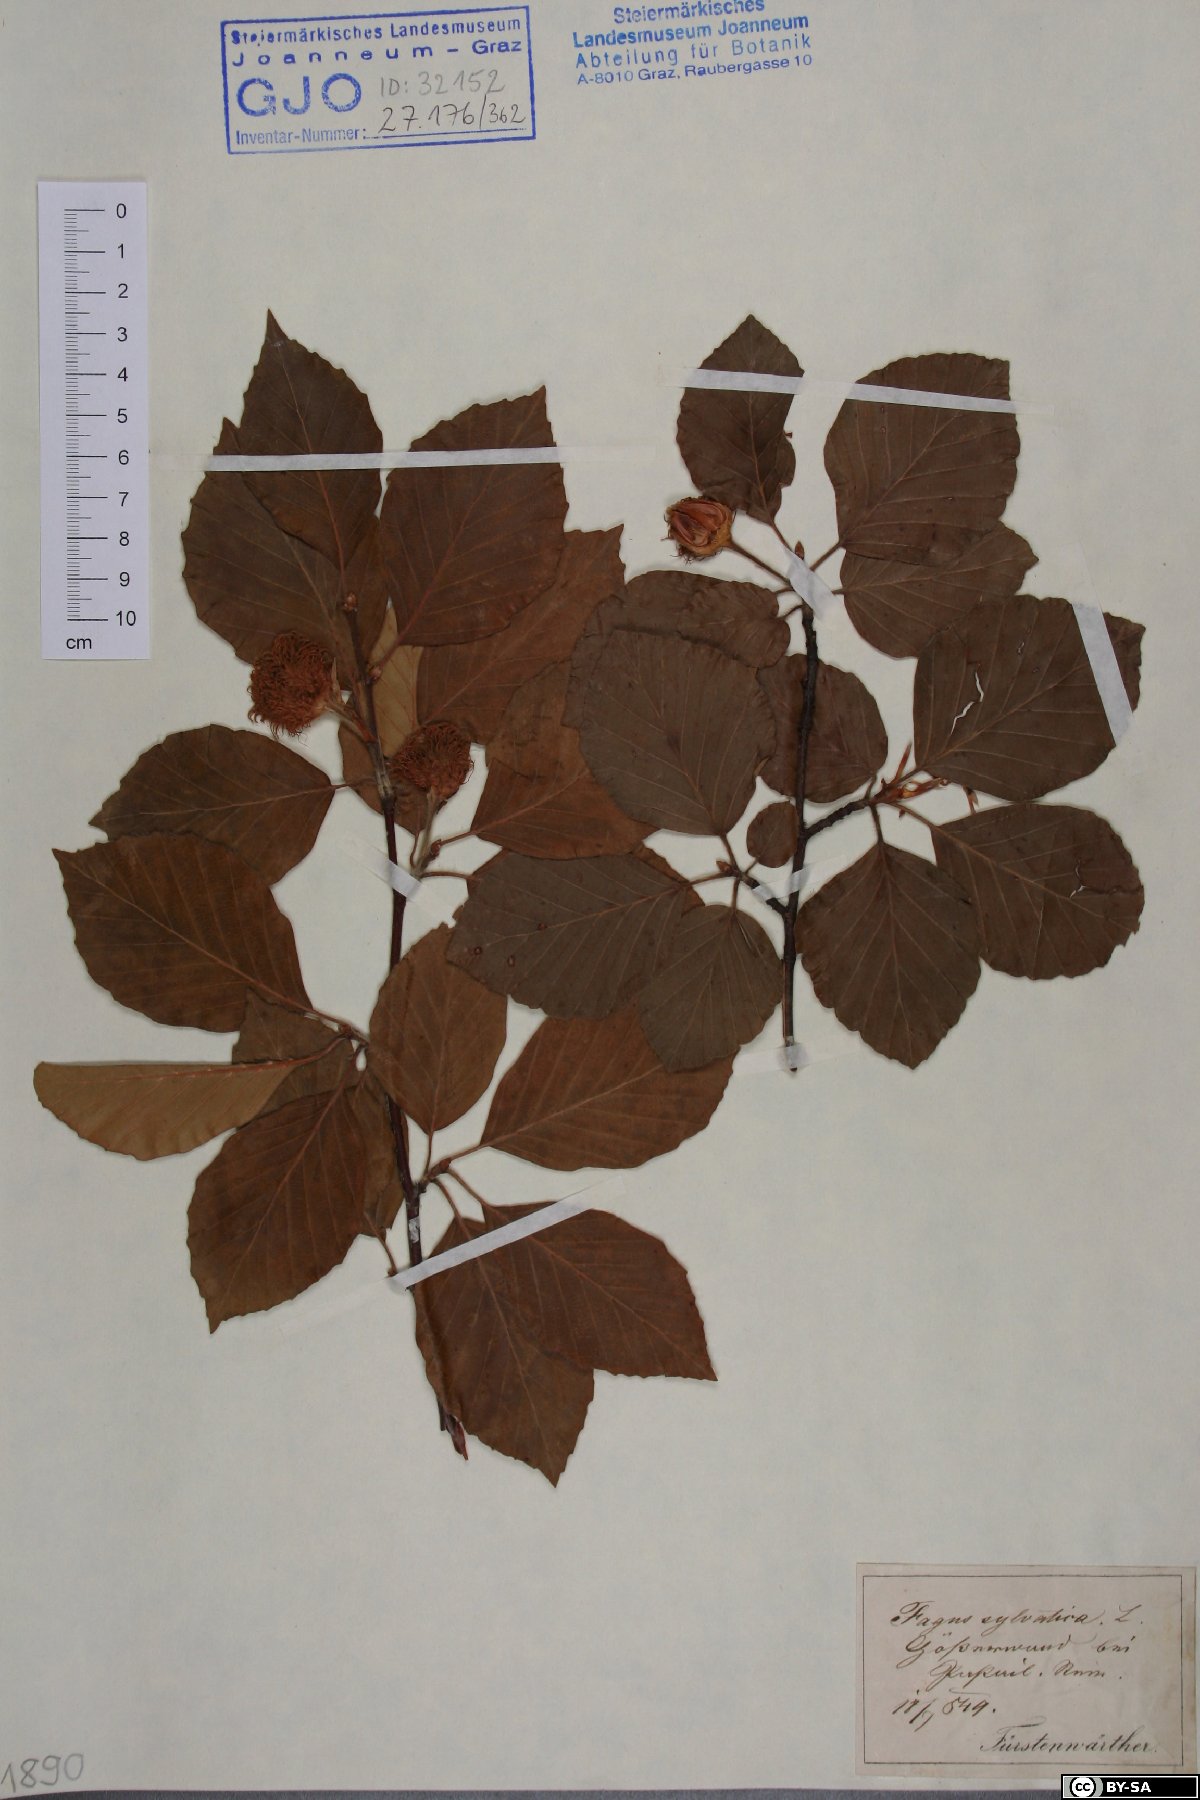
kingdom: Plantae
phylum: Tracheophyta
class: Magnoliopsida
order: Fagales
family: Fagaceae
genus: Fagus
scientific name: Fagus sylvatica
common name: Beech
